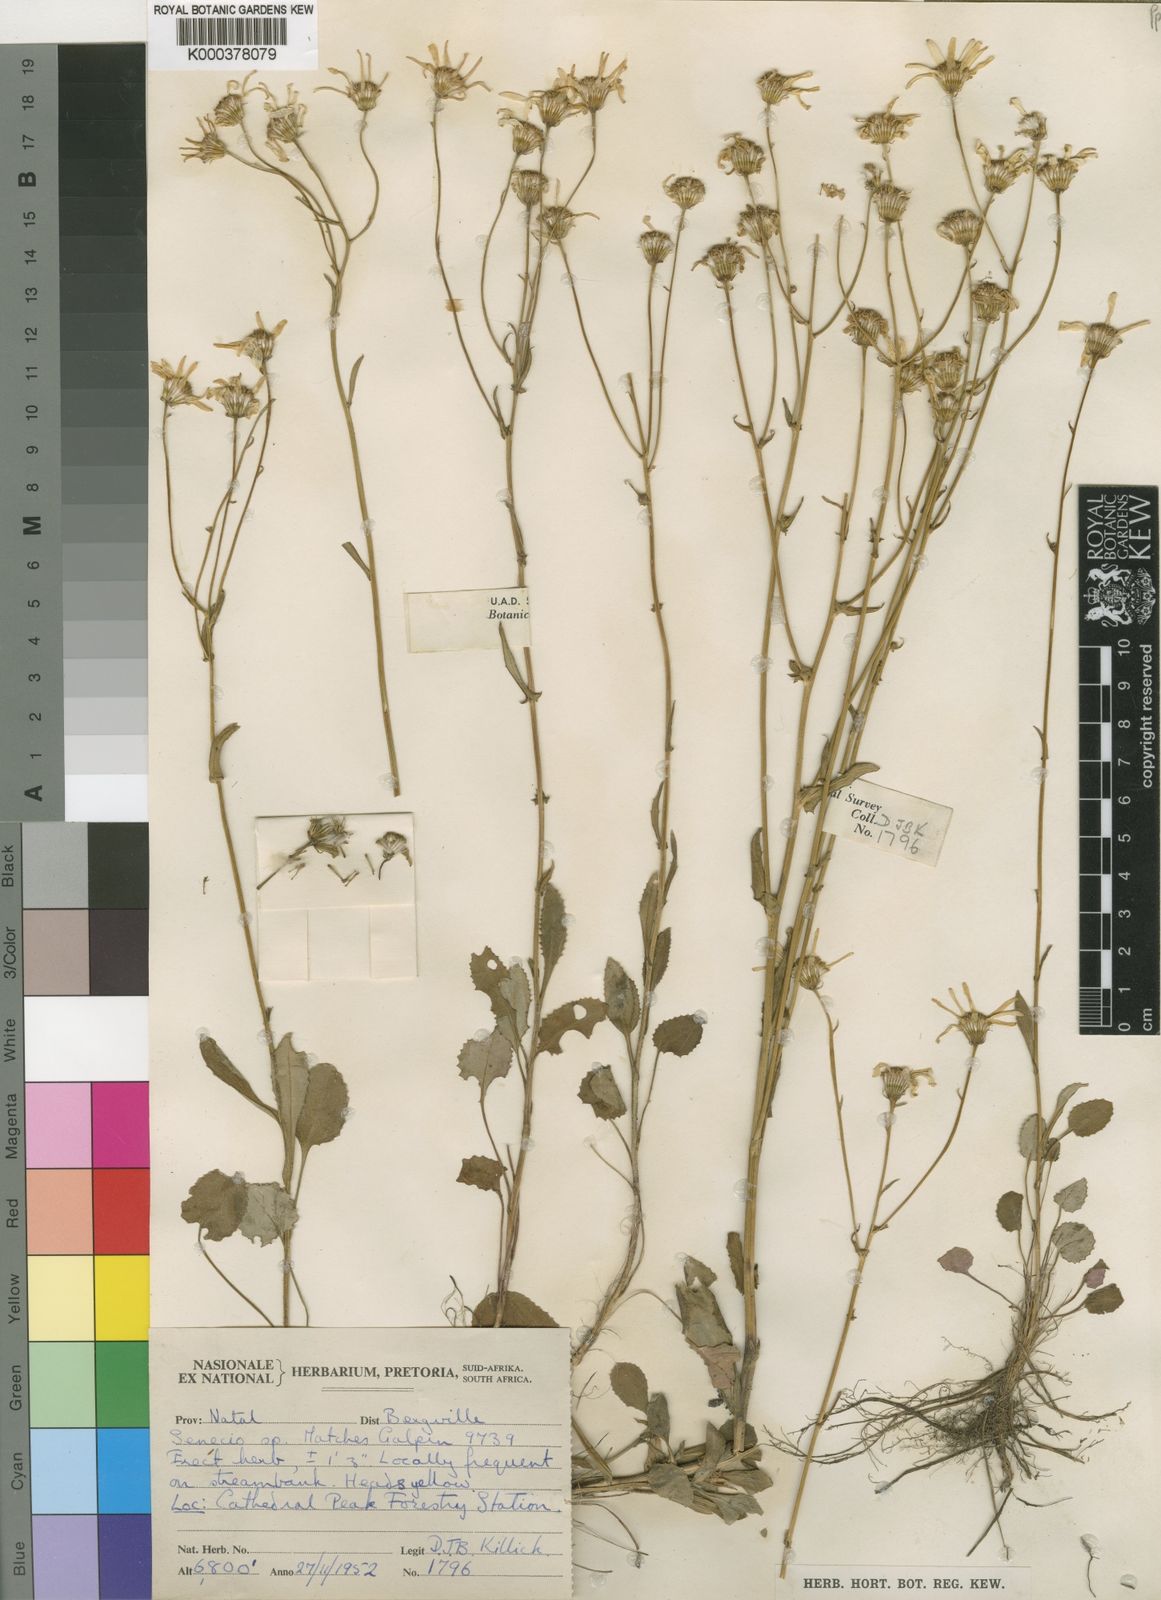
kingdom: Plantae
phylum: Tracheophyta
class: Magnoliopsida
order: Asterales
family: Asteraceae
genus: Senecio
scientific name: Senecio praeteritus
